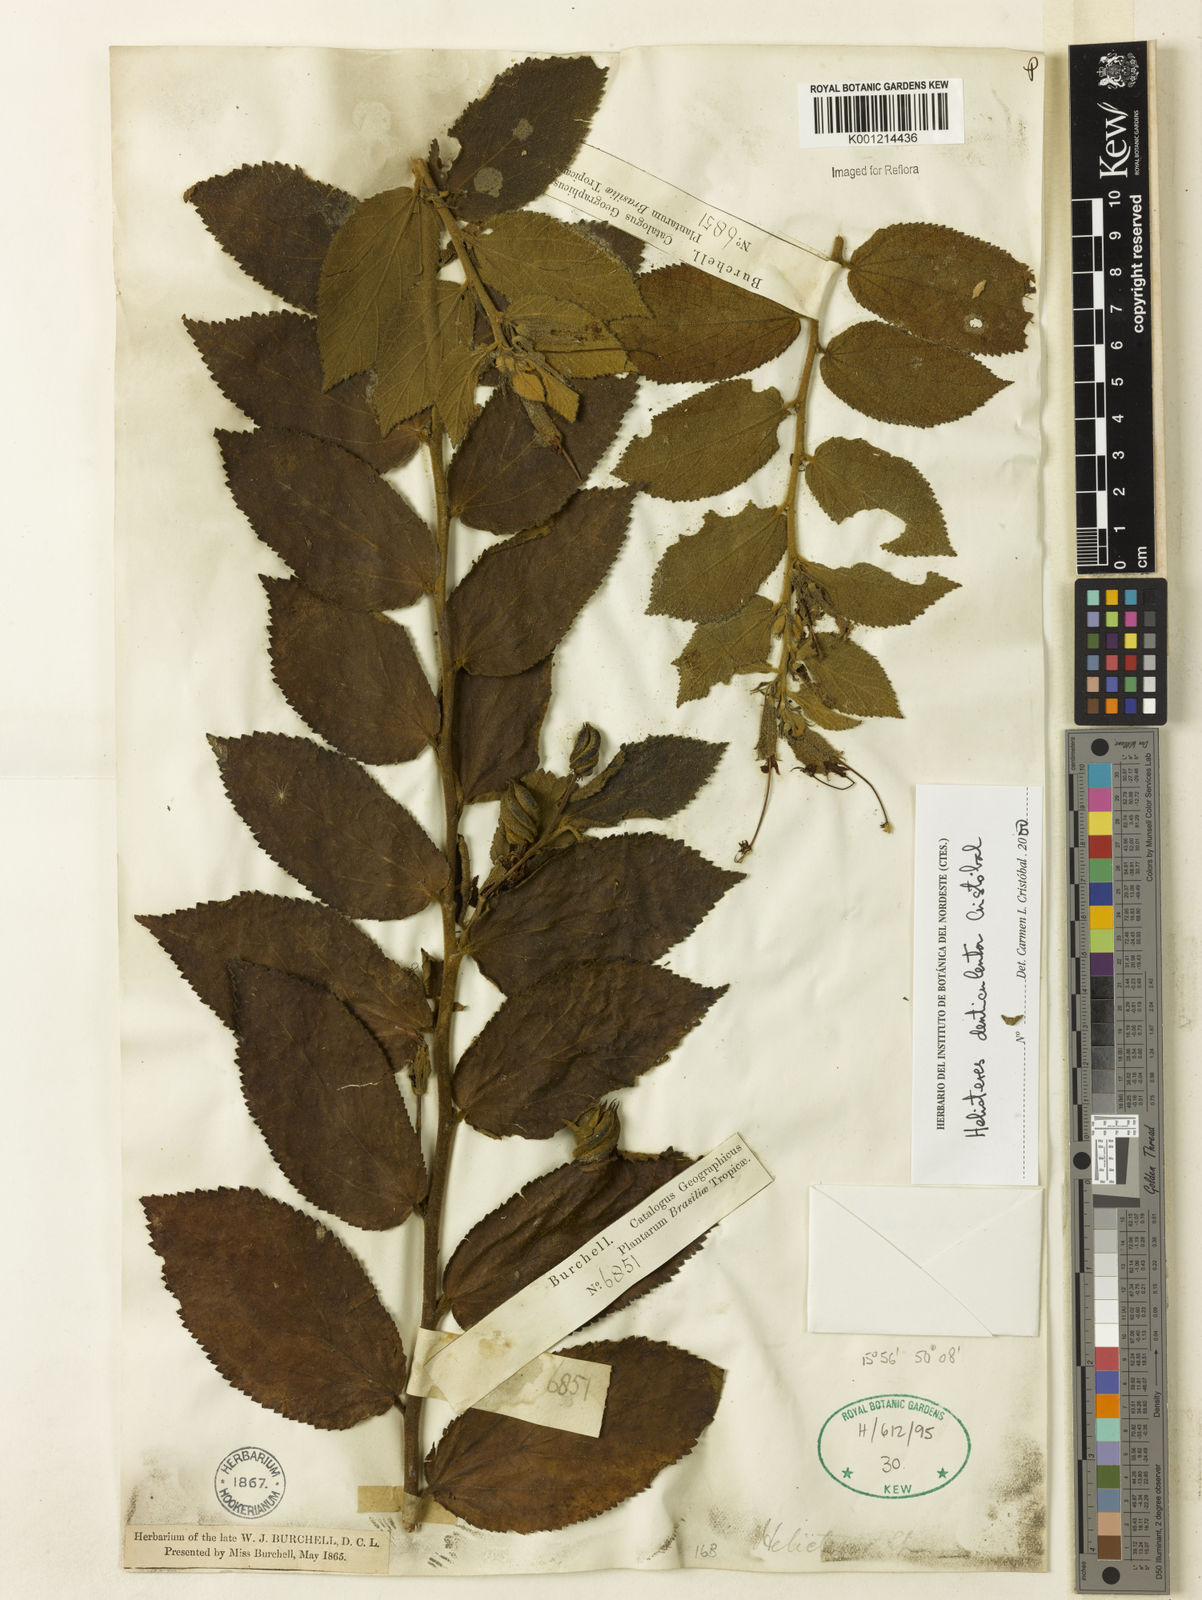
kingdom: Plantae
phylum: Tracheophyta
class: Magnoliopsida
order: Malvales
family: Malvaceae
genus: Helicteres
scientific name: Helicteres
